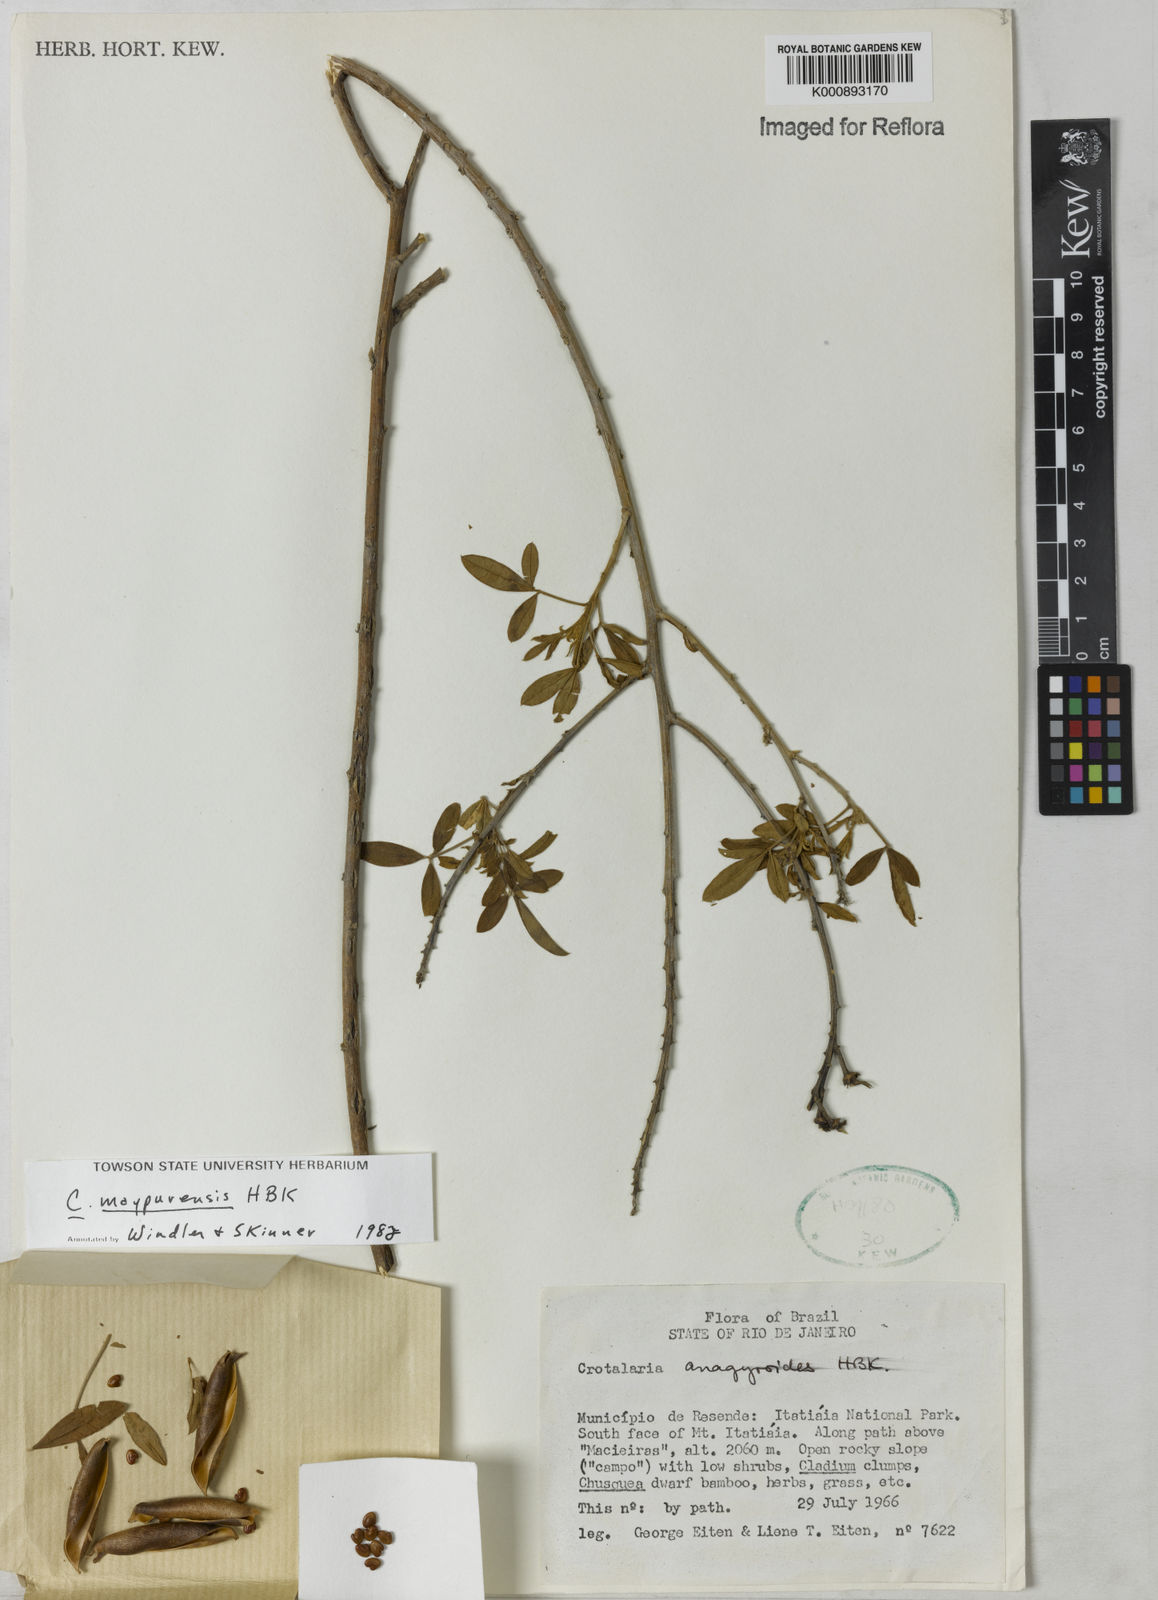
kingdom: Plantae
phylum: Tracheophyta
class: Magnoliopsida
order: Fabales
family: Fabaceae
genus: Crotalaria
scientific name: Crotalaria maypurensis
